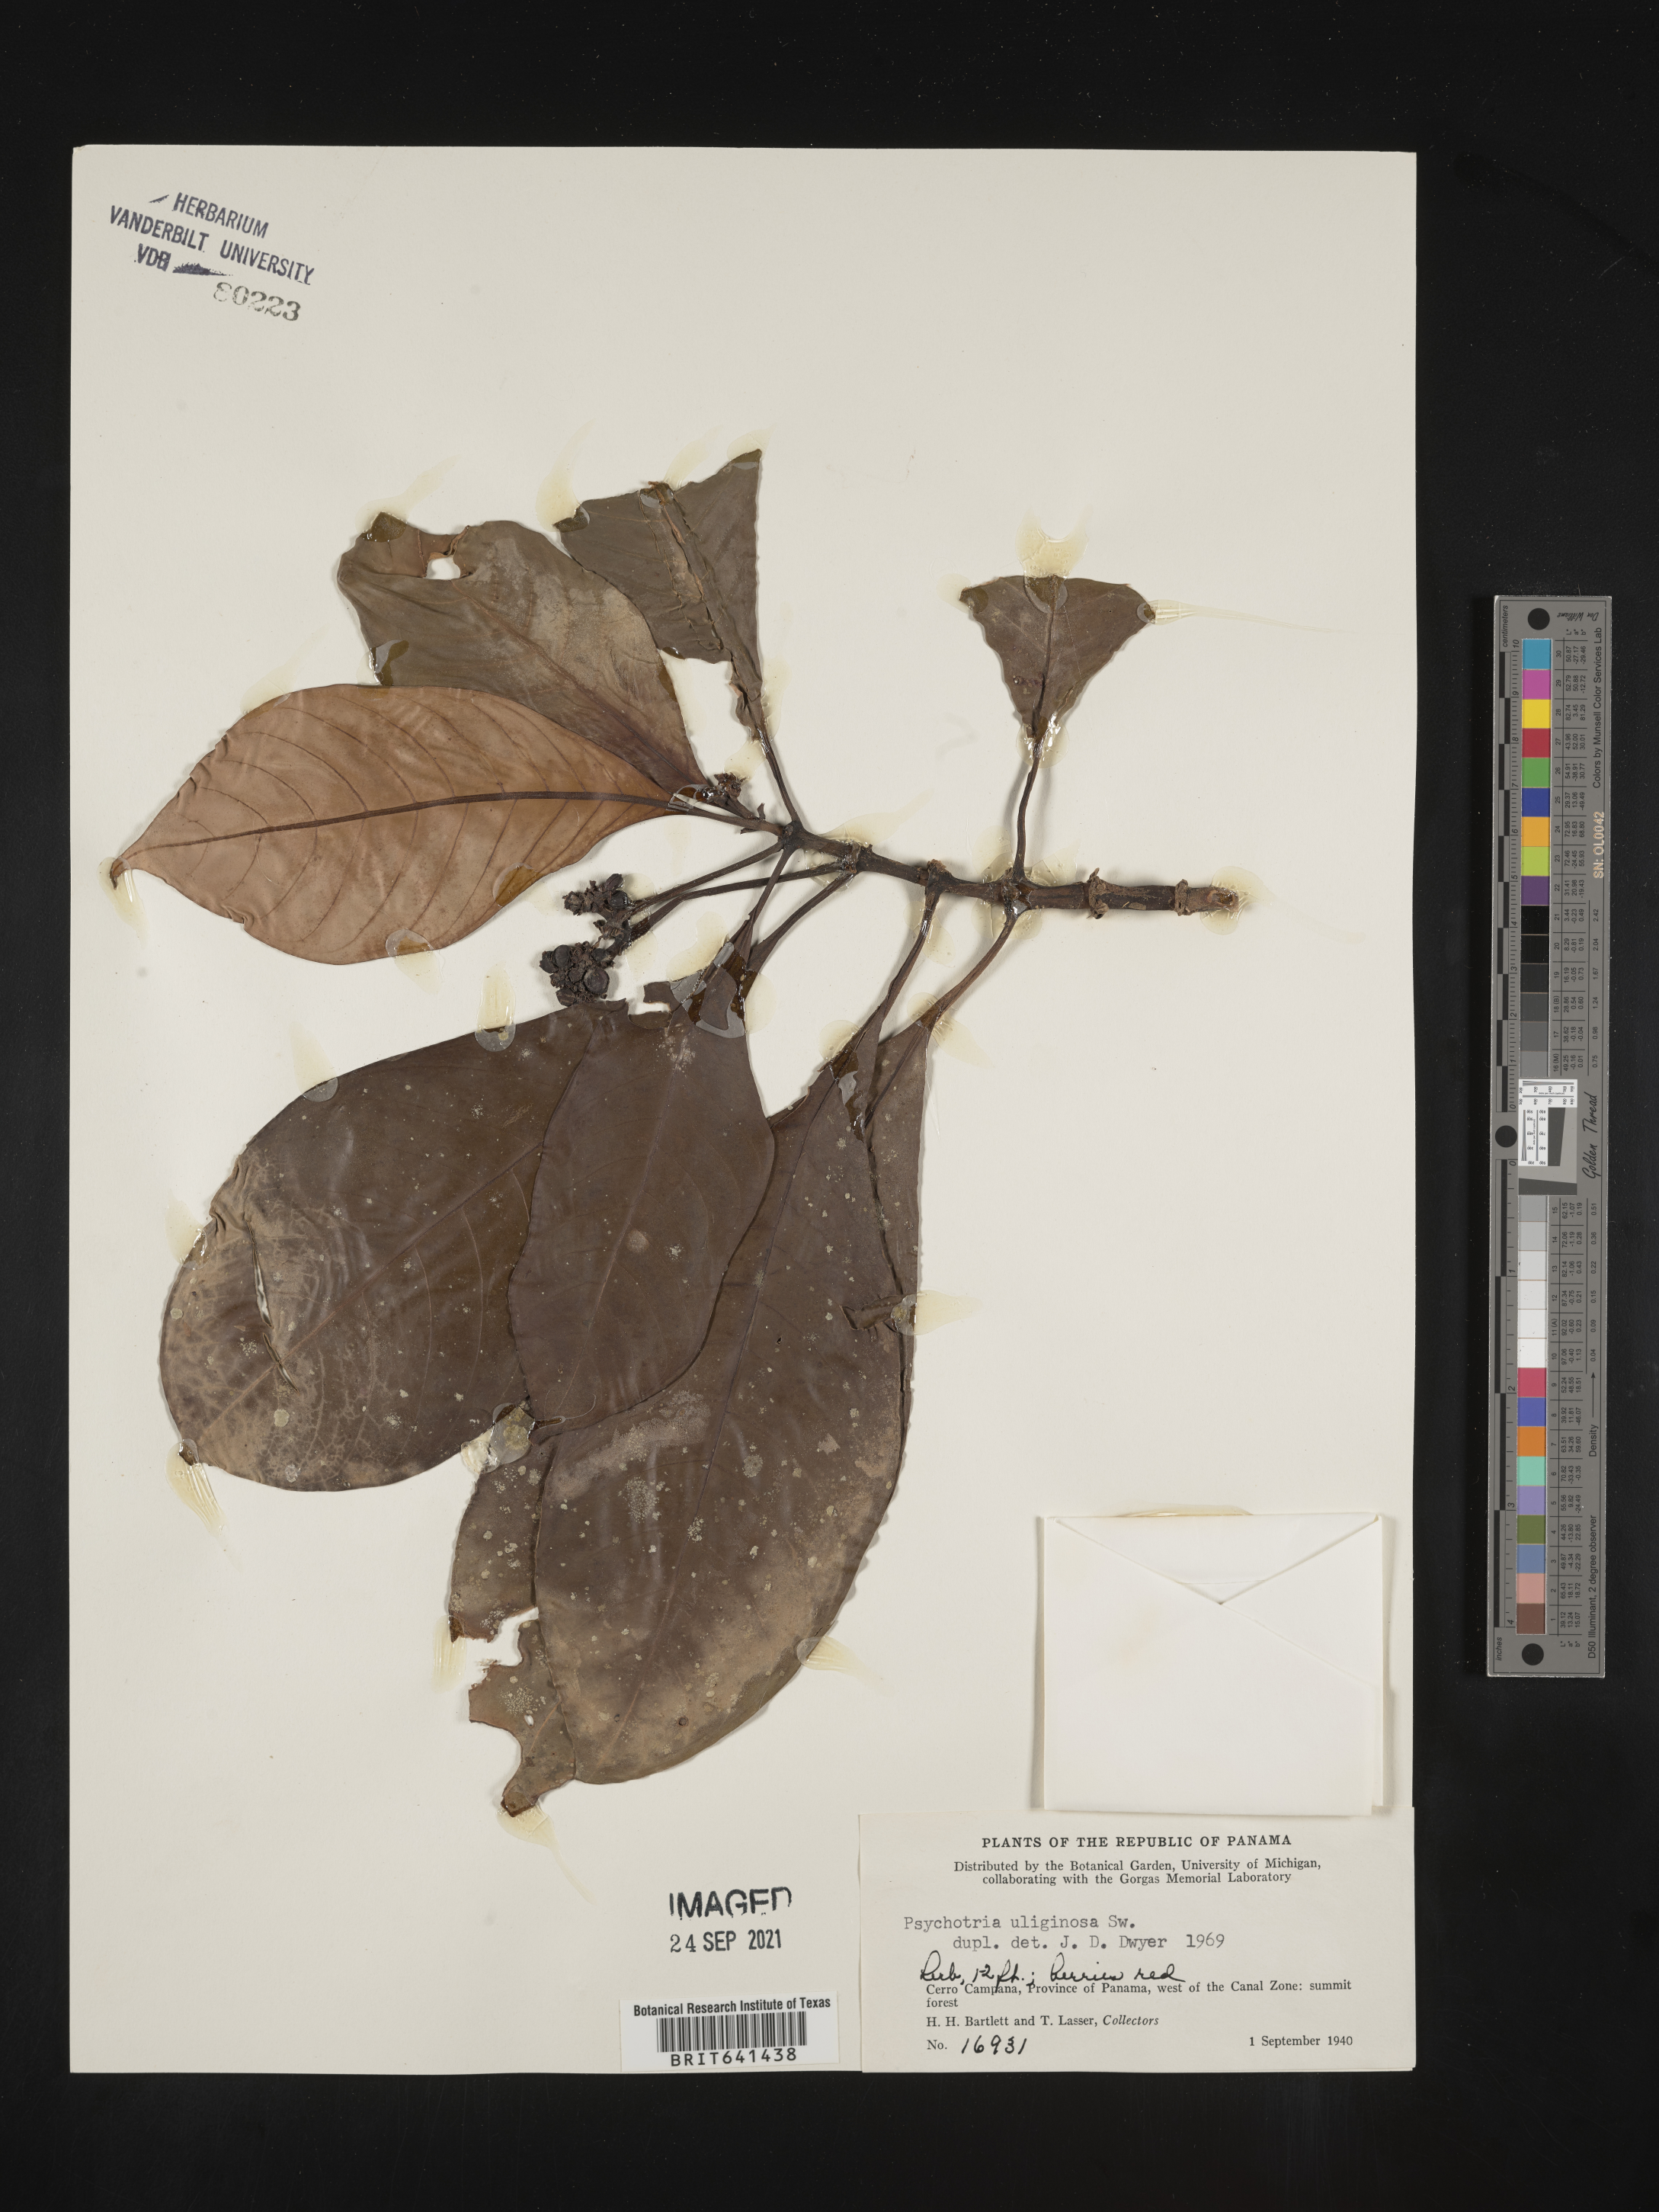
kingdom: Plantae
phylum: Tracheophyta
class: Magnoliopsida
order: Gentianales
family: Rubiaceae
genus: Psychotria
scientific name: Psychotria
